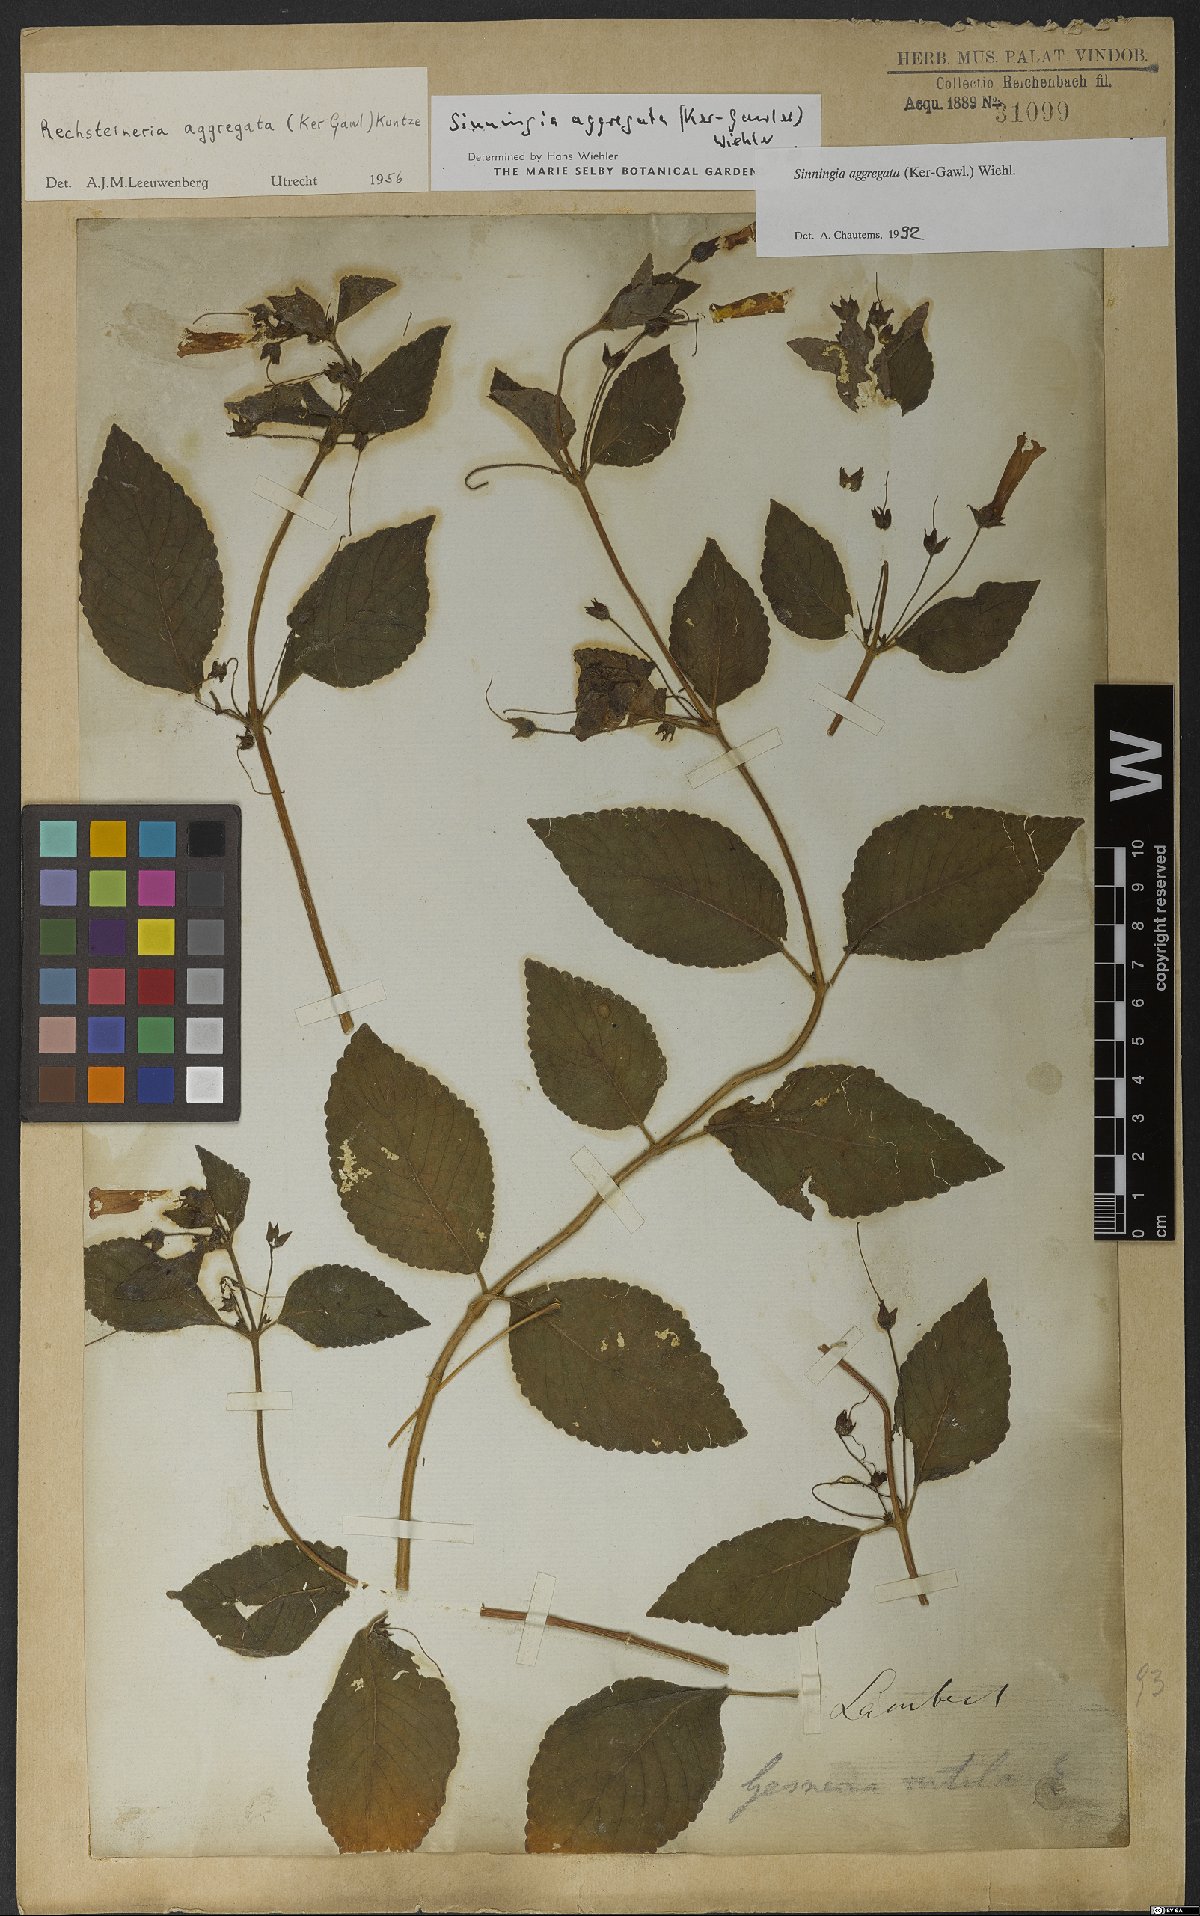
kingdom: Plantae
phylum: Tracheophyta
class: Magnoliopsida
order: Lamiales
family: Gesneriaceae
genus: Sinningia
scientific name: Sinningia aggregata
